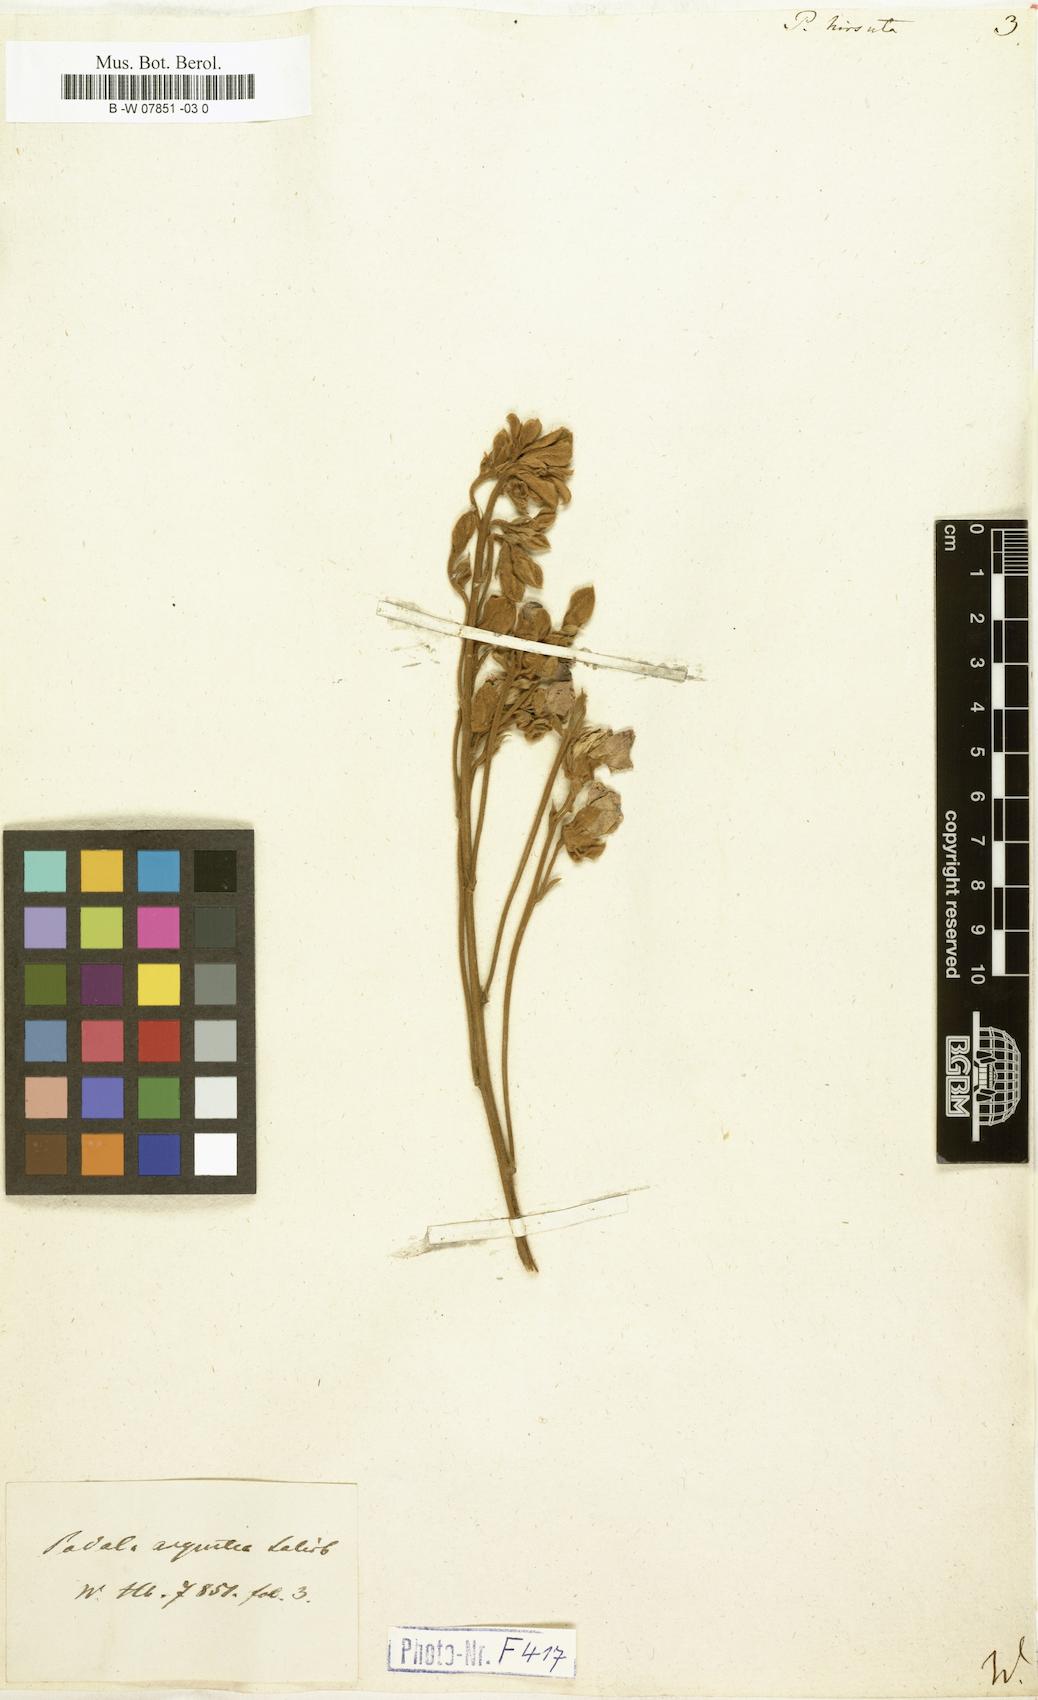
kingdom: Plantae
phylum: Tracheophyta
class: Magnoliopsida
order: Fabales
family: Fabaceae
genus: Podalyria
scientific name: Podalyria hirsuta
